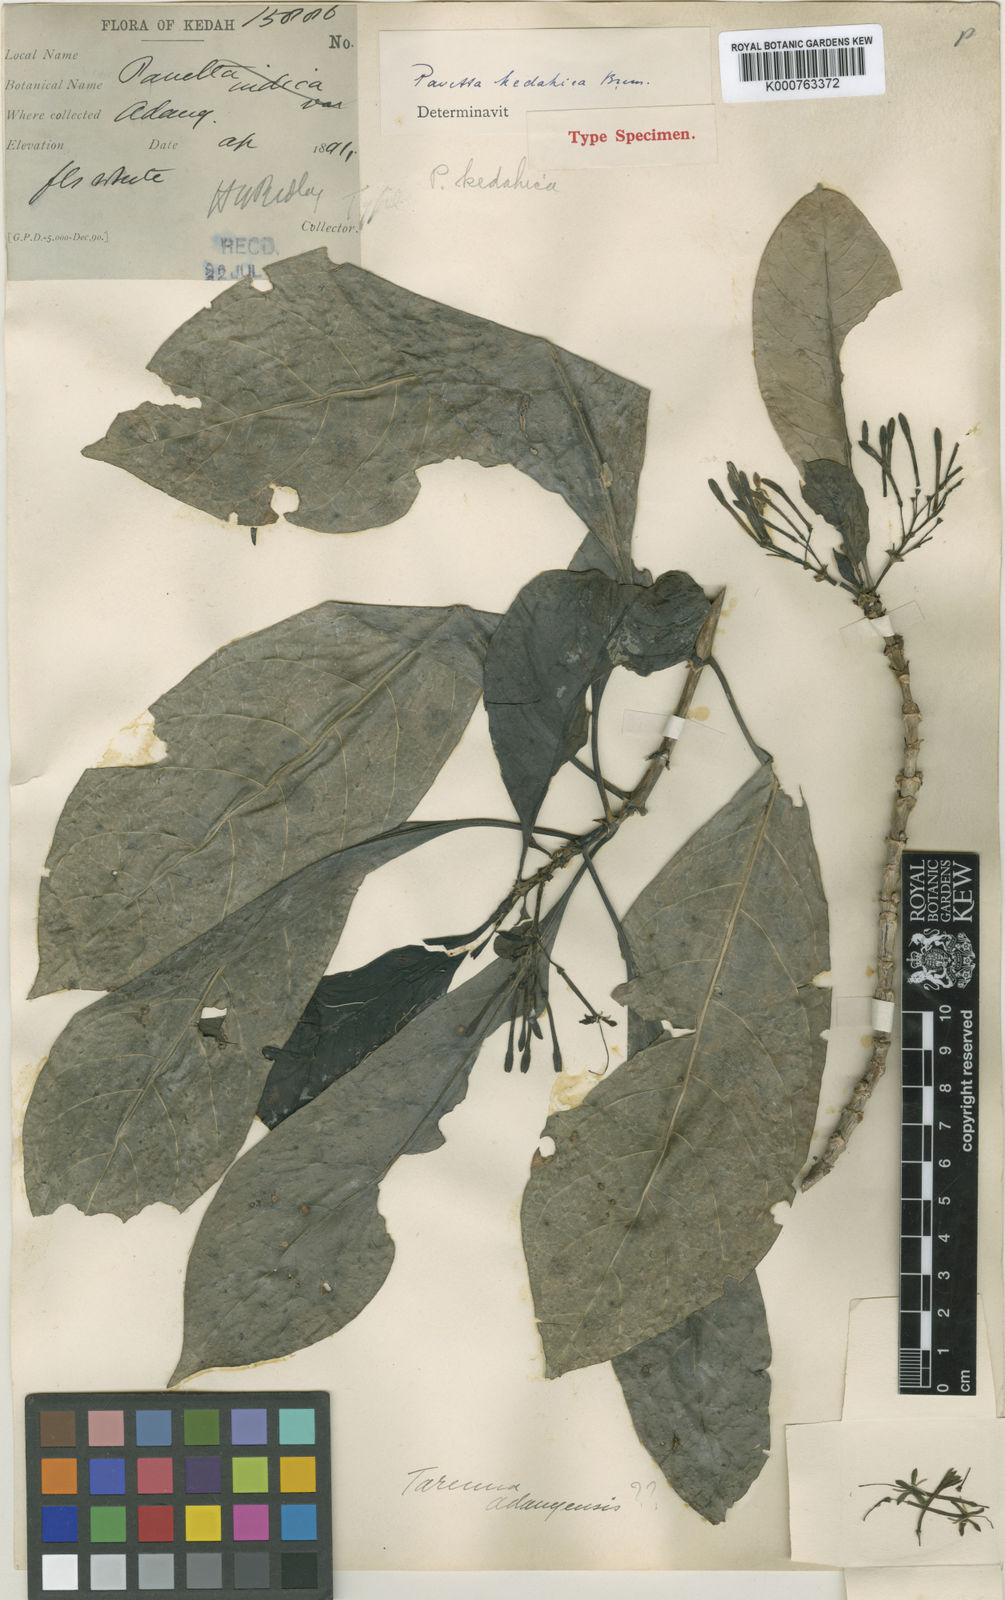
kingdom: Plantae
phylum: Tracheophyta
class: Magnoliopsida
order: Gentianales
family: Rubiaceae
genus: Pavetta
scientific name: Pavetta kedahica
